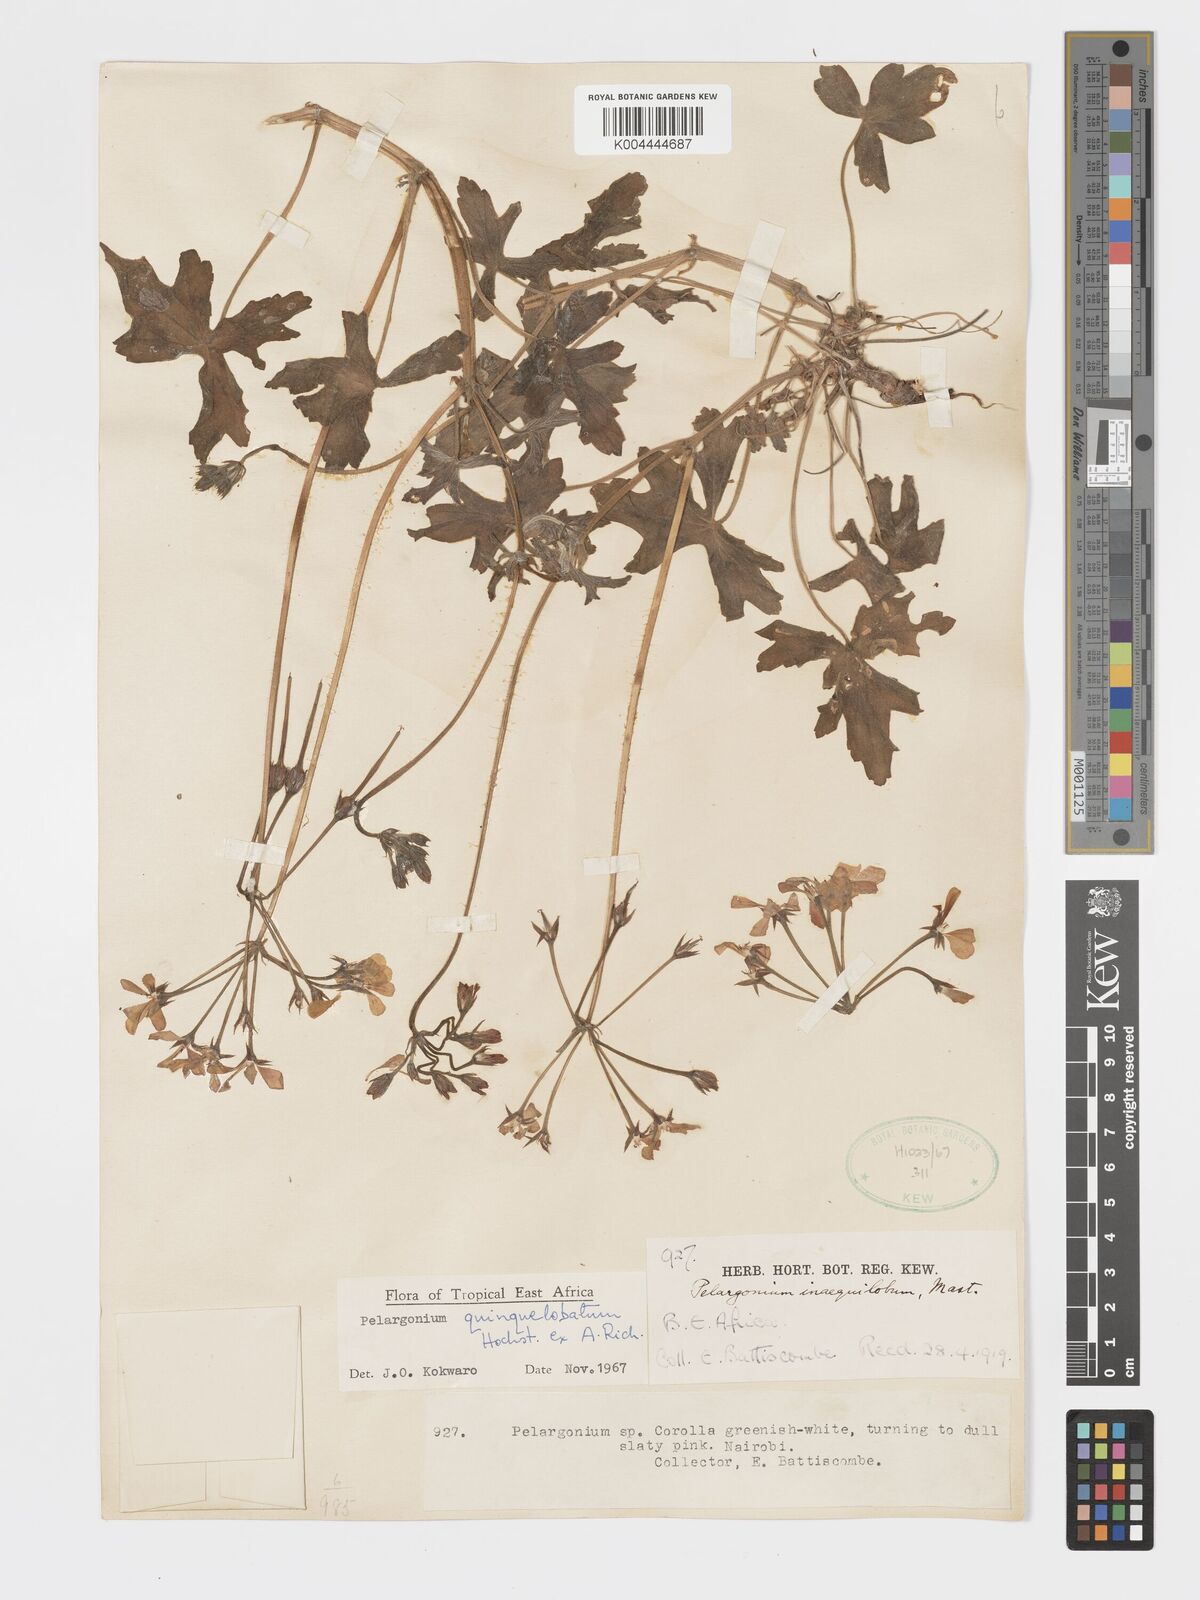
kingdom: Plantae
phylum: Tracheophyta
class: Magnoliopsida
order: Geraniales
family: Geraniaceae
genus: Pelargonium
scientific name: Pelargonium quinquelobatum
